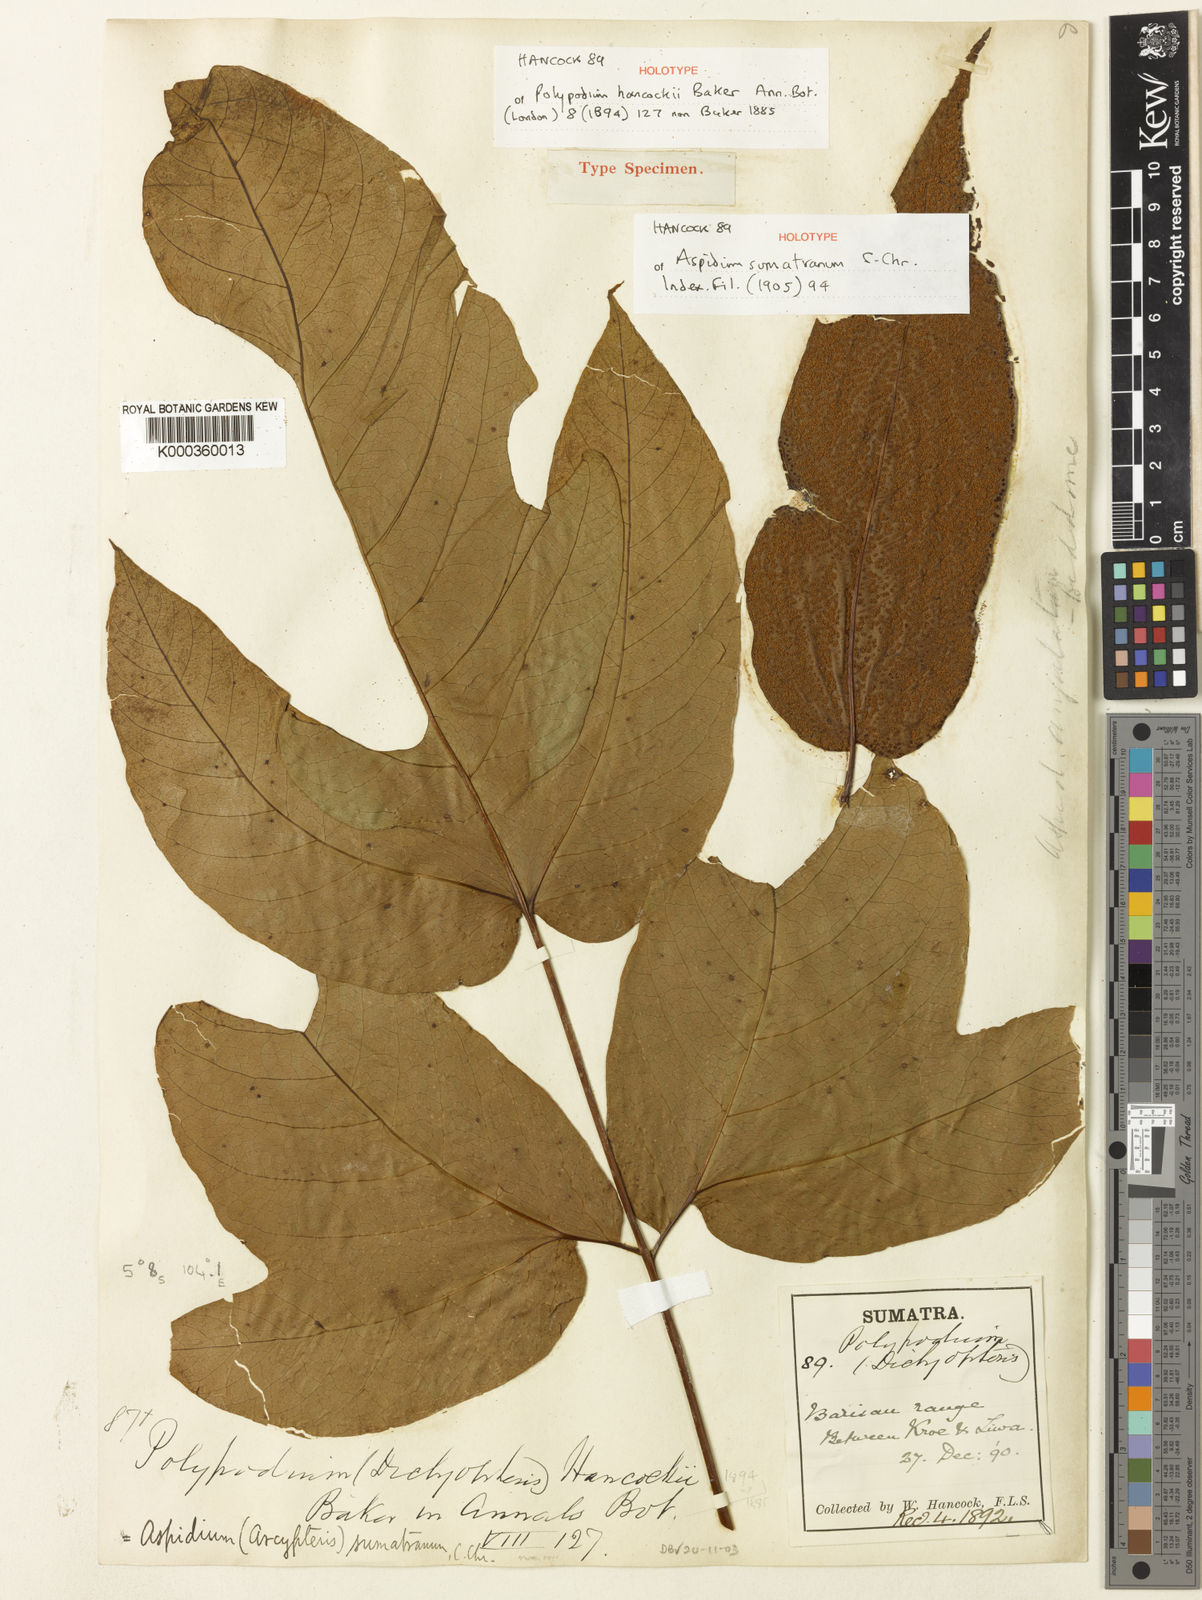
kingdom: Plantae
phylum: Tracheophyta
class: Polypodiopsida
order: Polypodiales
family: Tectariaceae
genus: Tectaria
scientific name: Tectaria sumatrana
